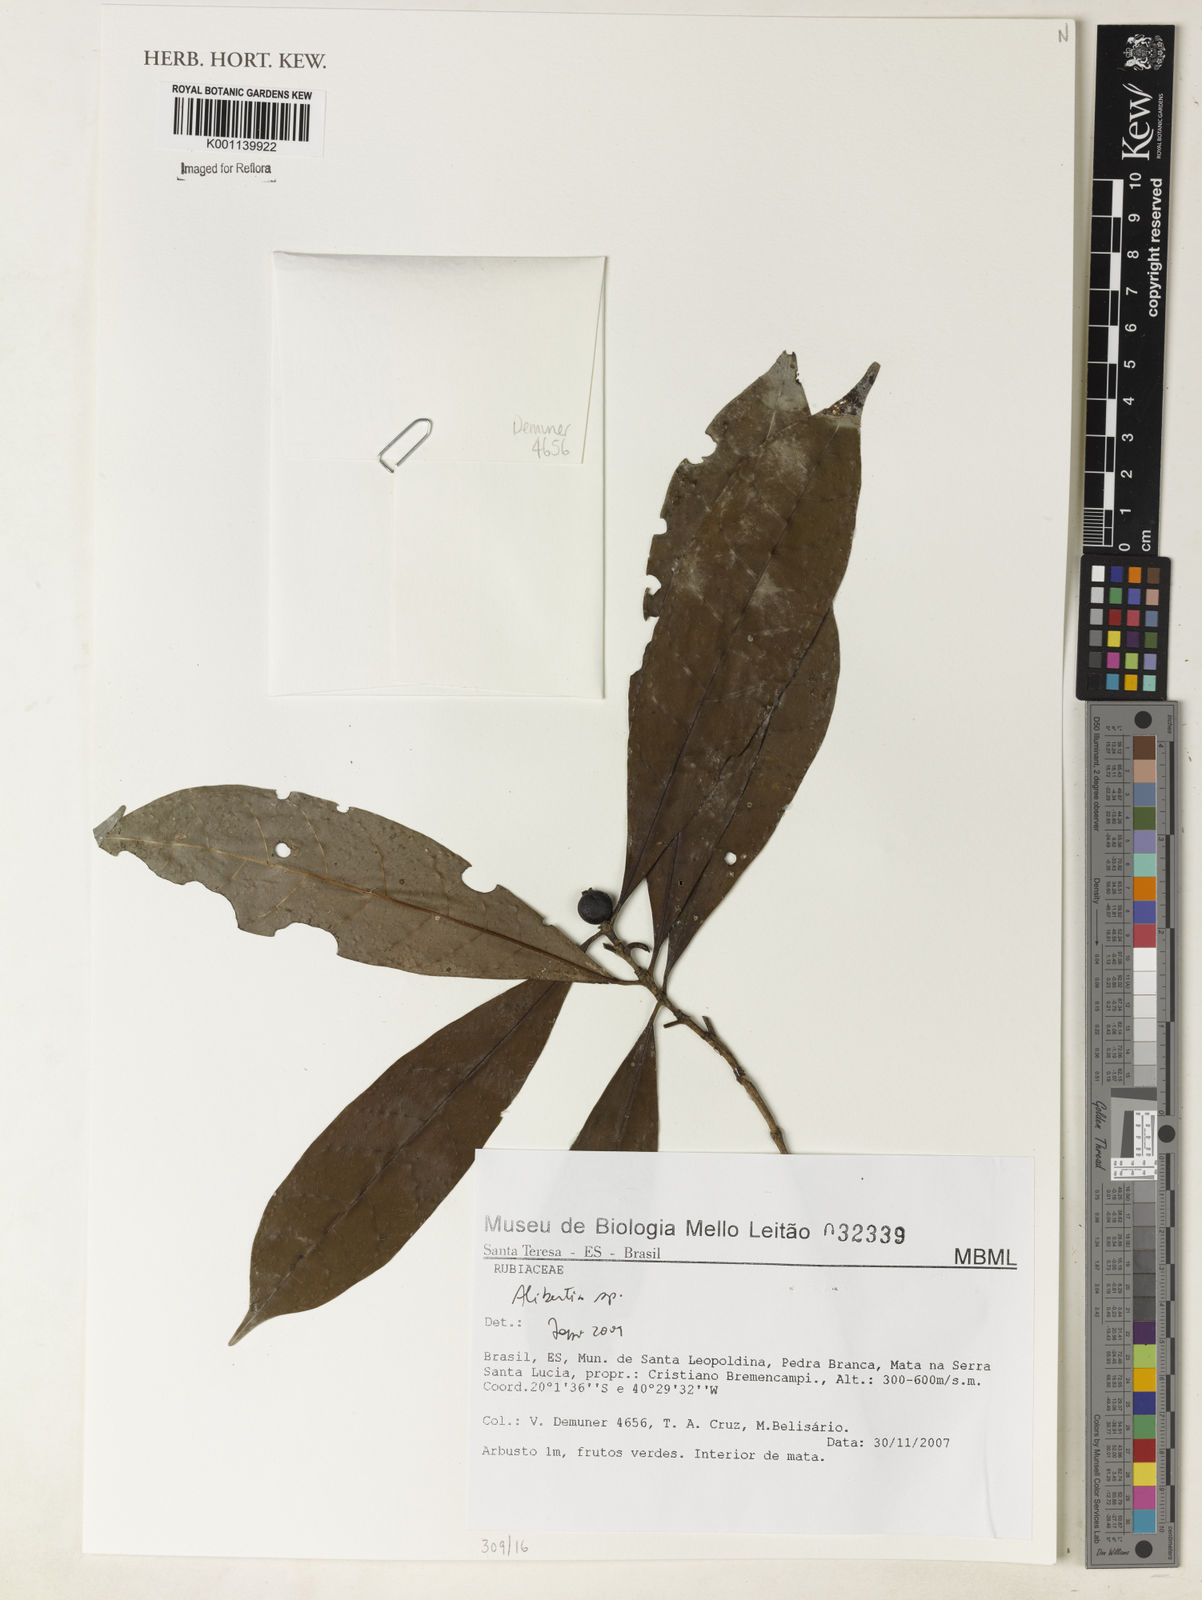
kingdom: Plantae
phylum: Tracheophyta
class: Magnoliopsida
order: Gentianales
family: Rubiaceae
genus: Alibertia
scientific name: Alibertia
